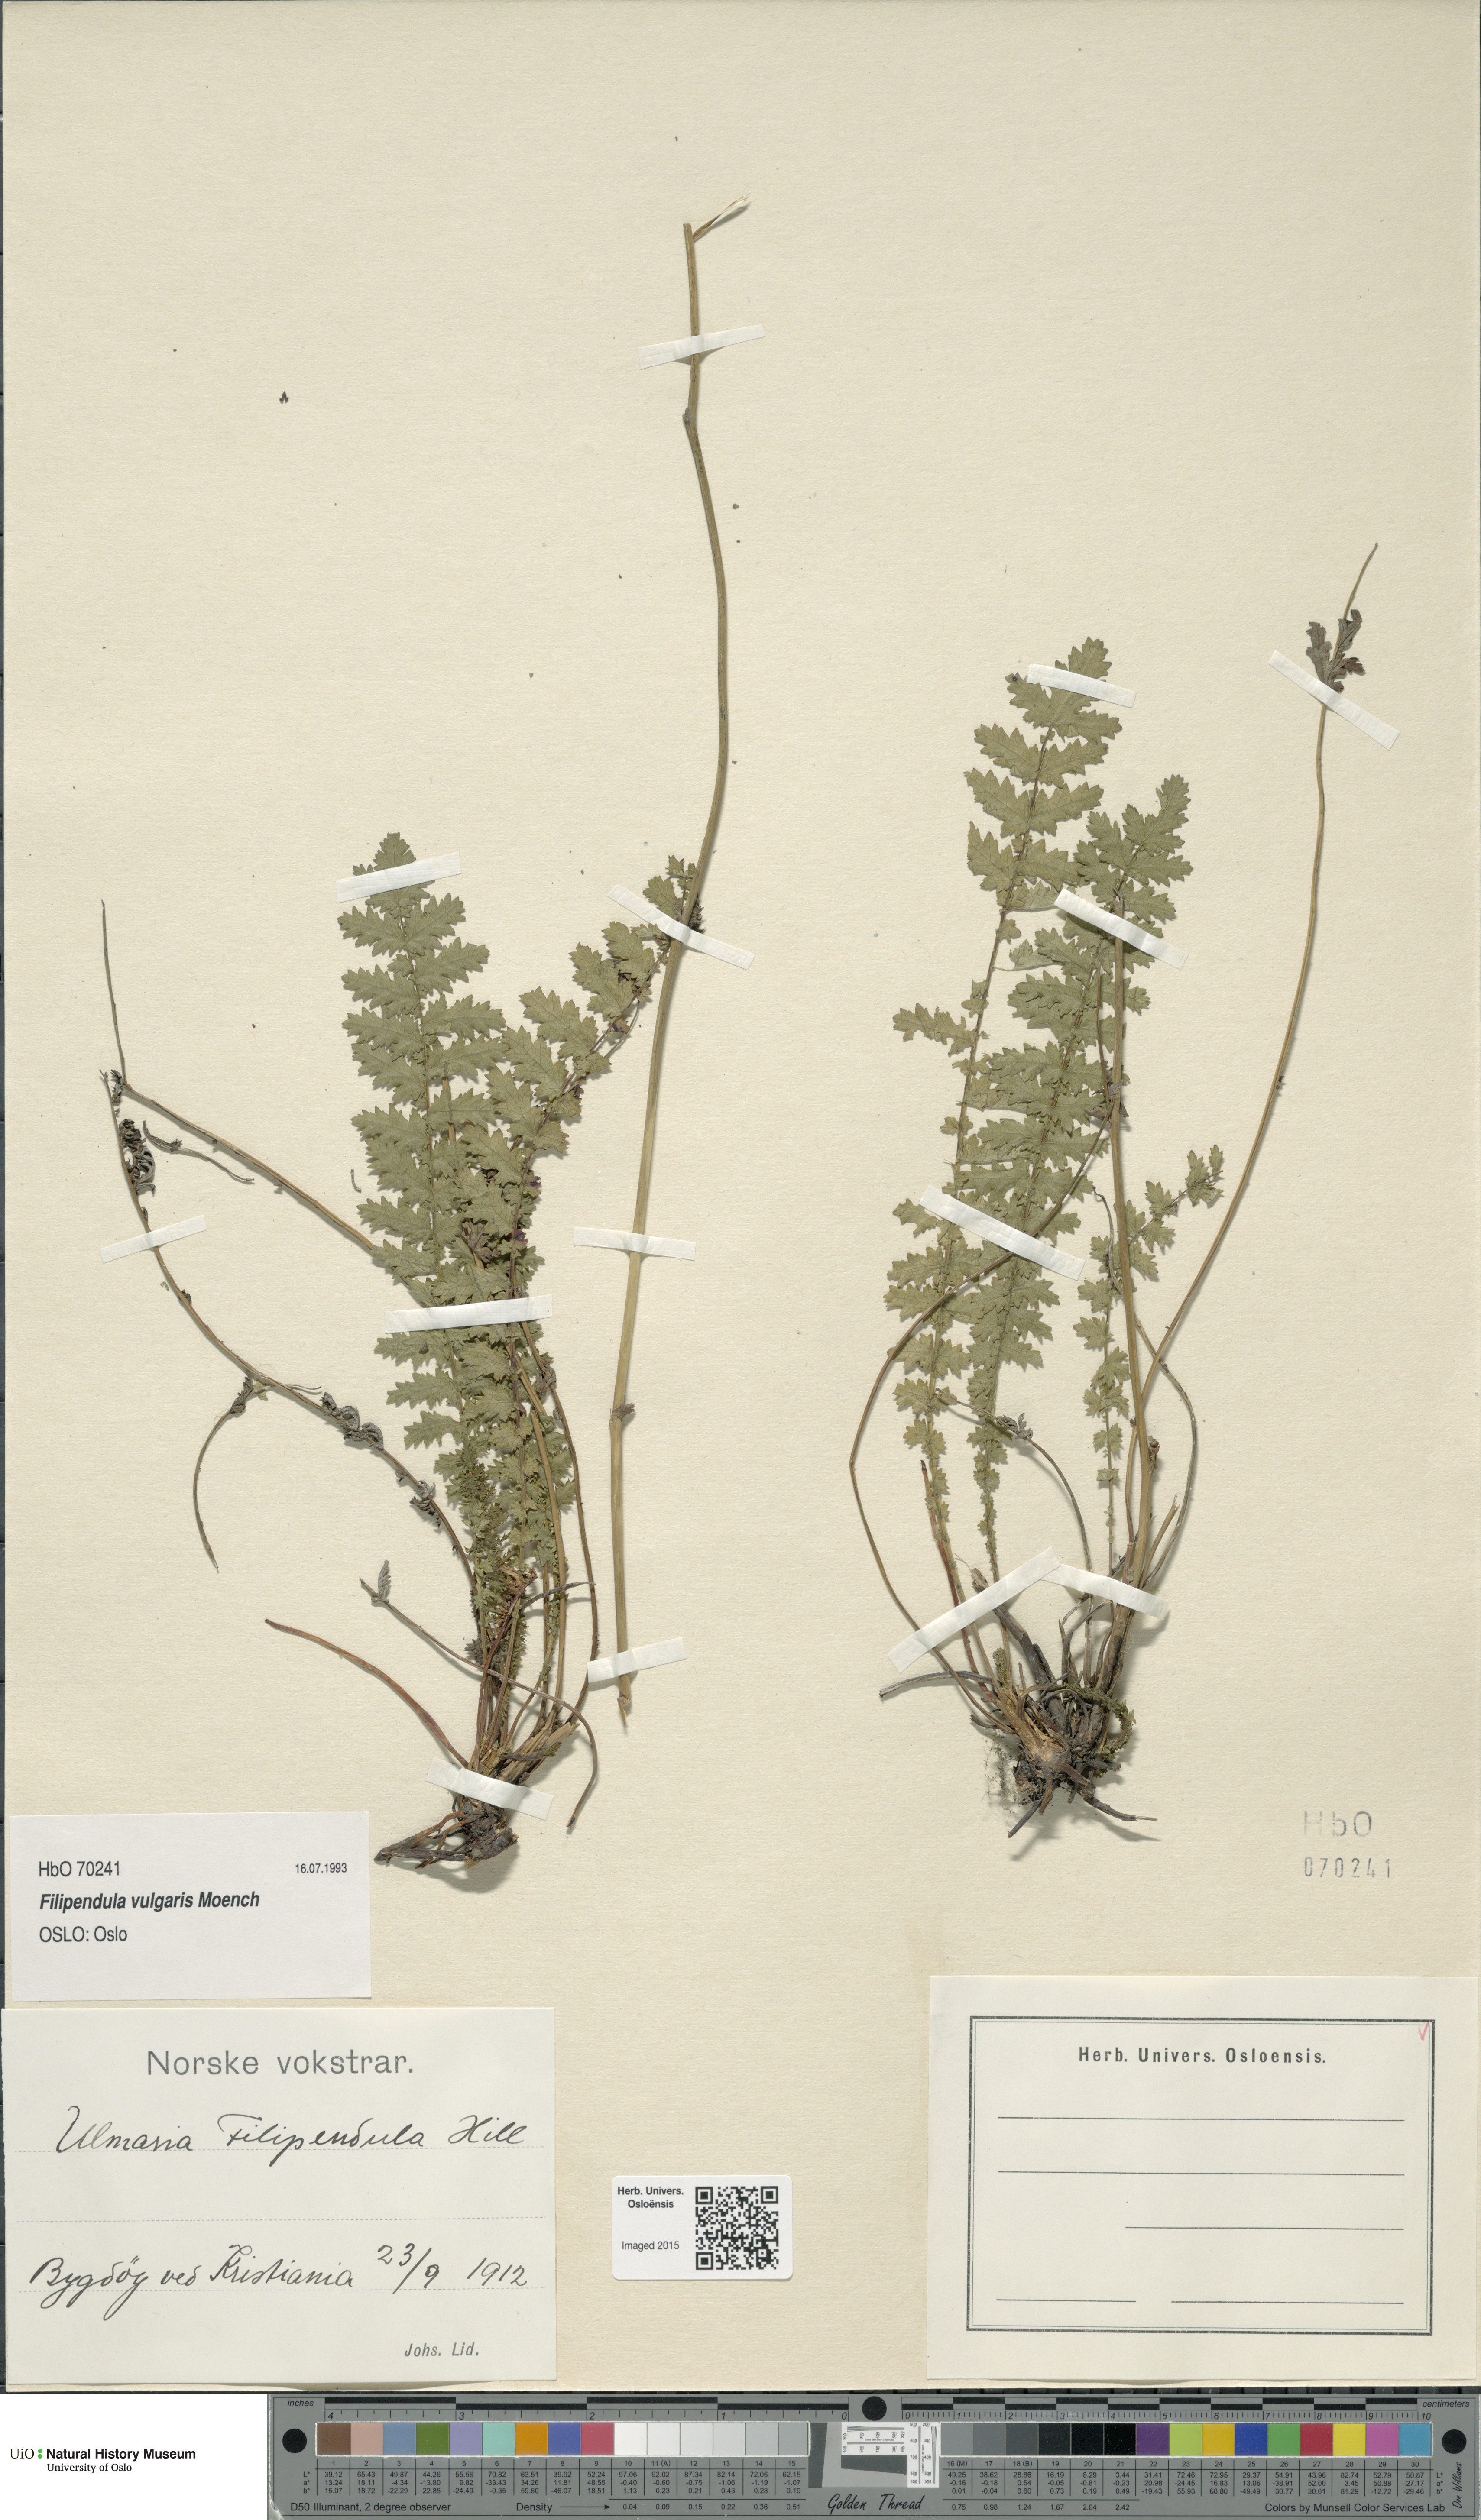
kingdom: Plantae
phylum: Tracheophyta
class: Magnoliopsida
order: Rosales
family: Rosaceae
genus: Filipendula
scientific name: Filipendula vulgaris
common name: Dropwort
